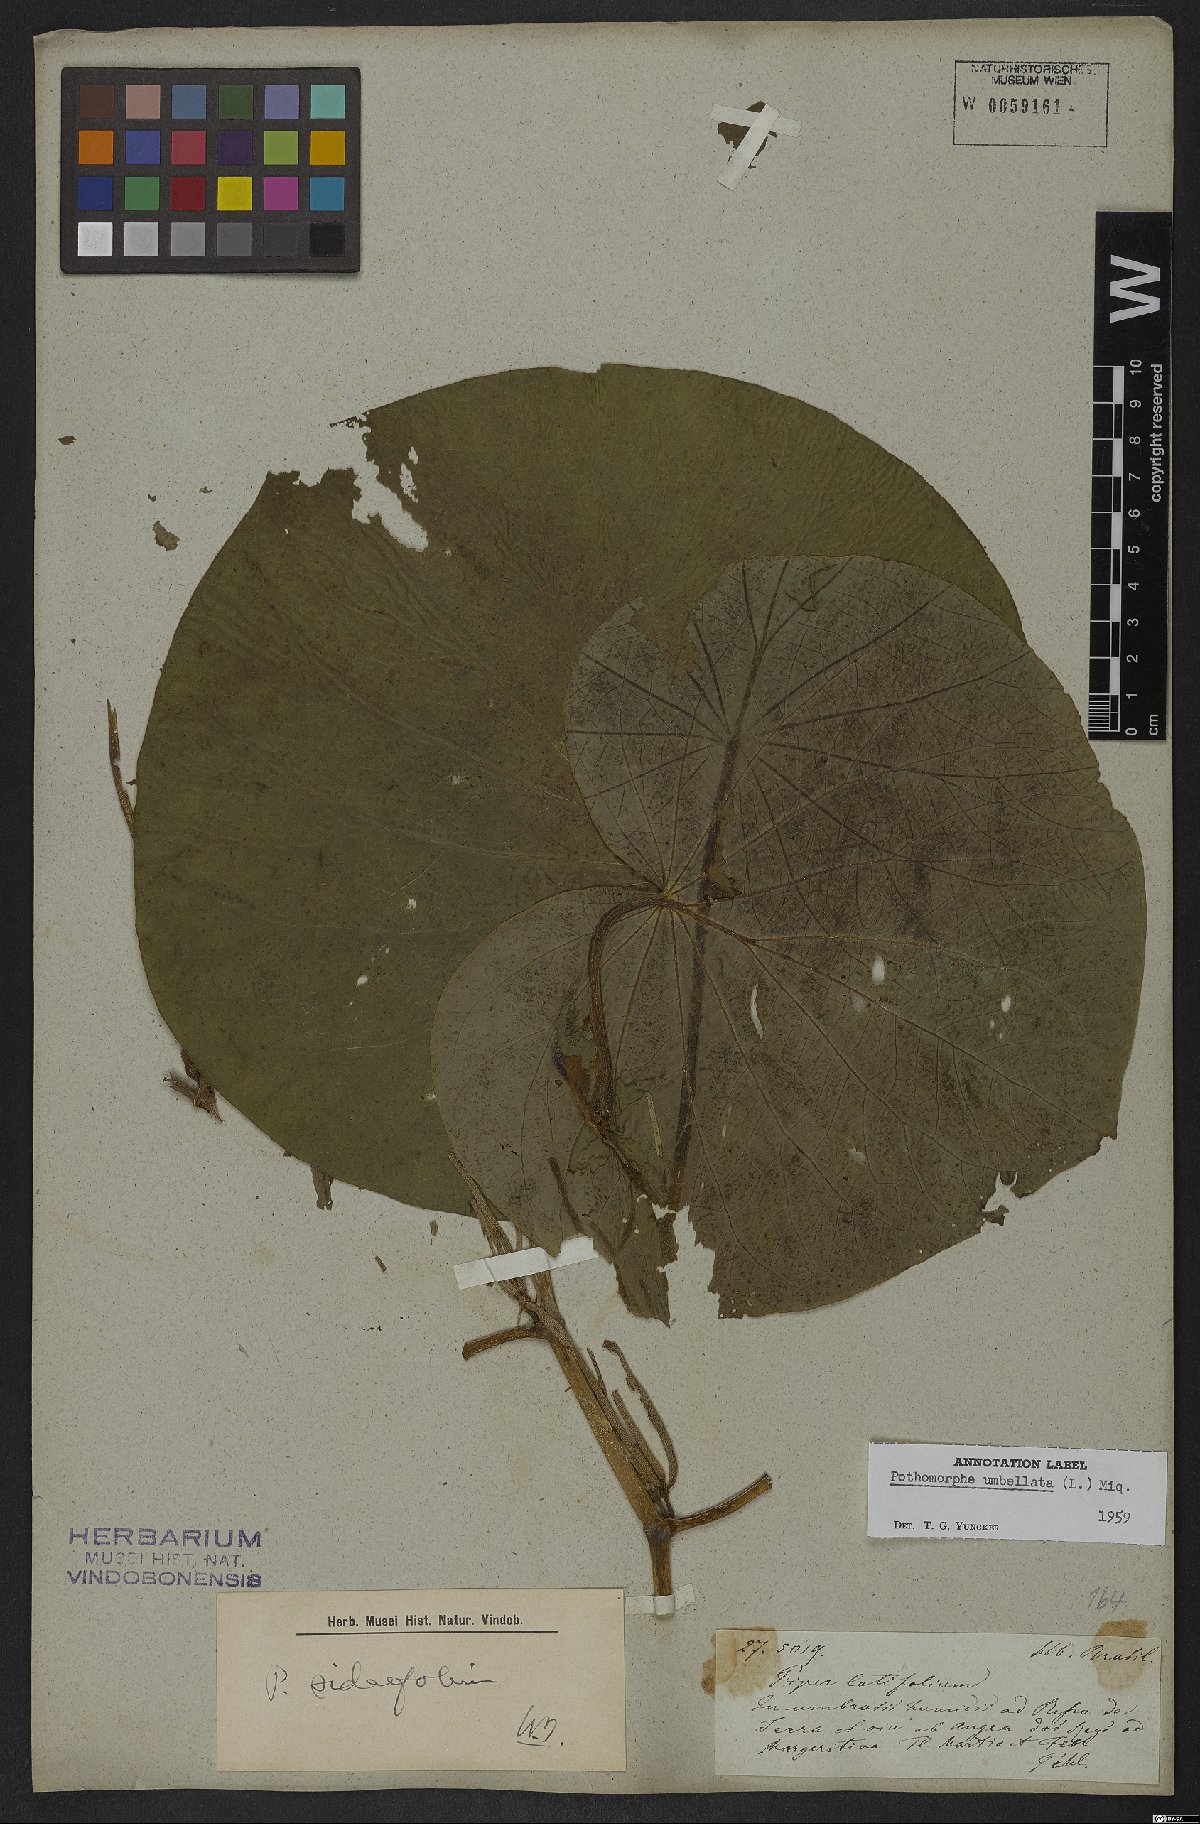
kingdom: Plantae
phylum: Tracheophyta
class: Magnoliopsida
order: Piperales
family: Piperaceae
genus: Piper
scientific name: Piper umbellatum
